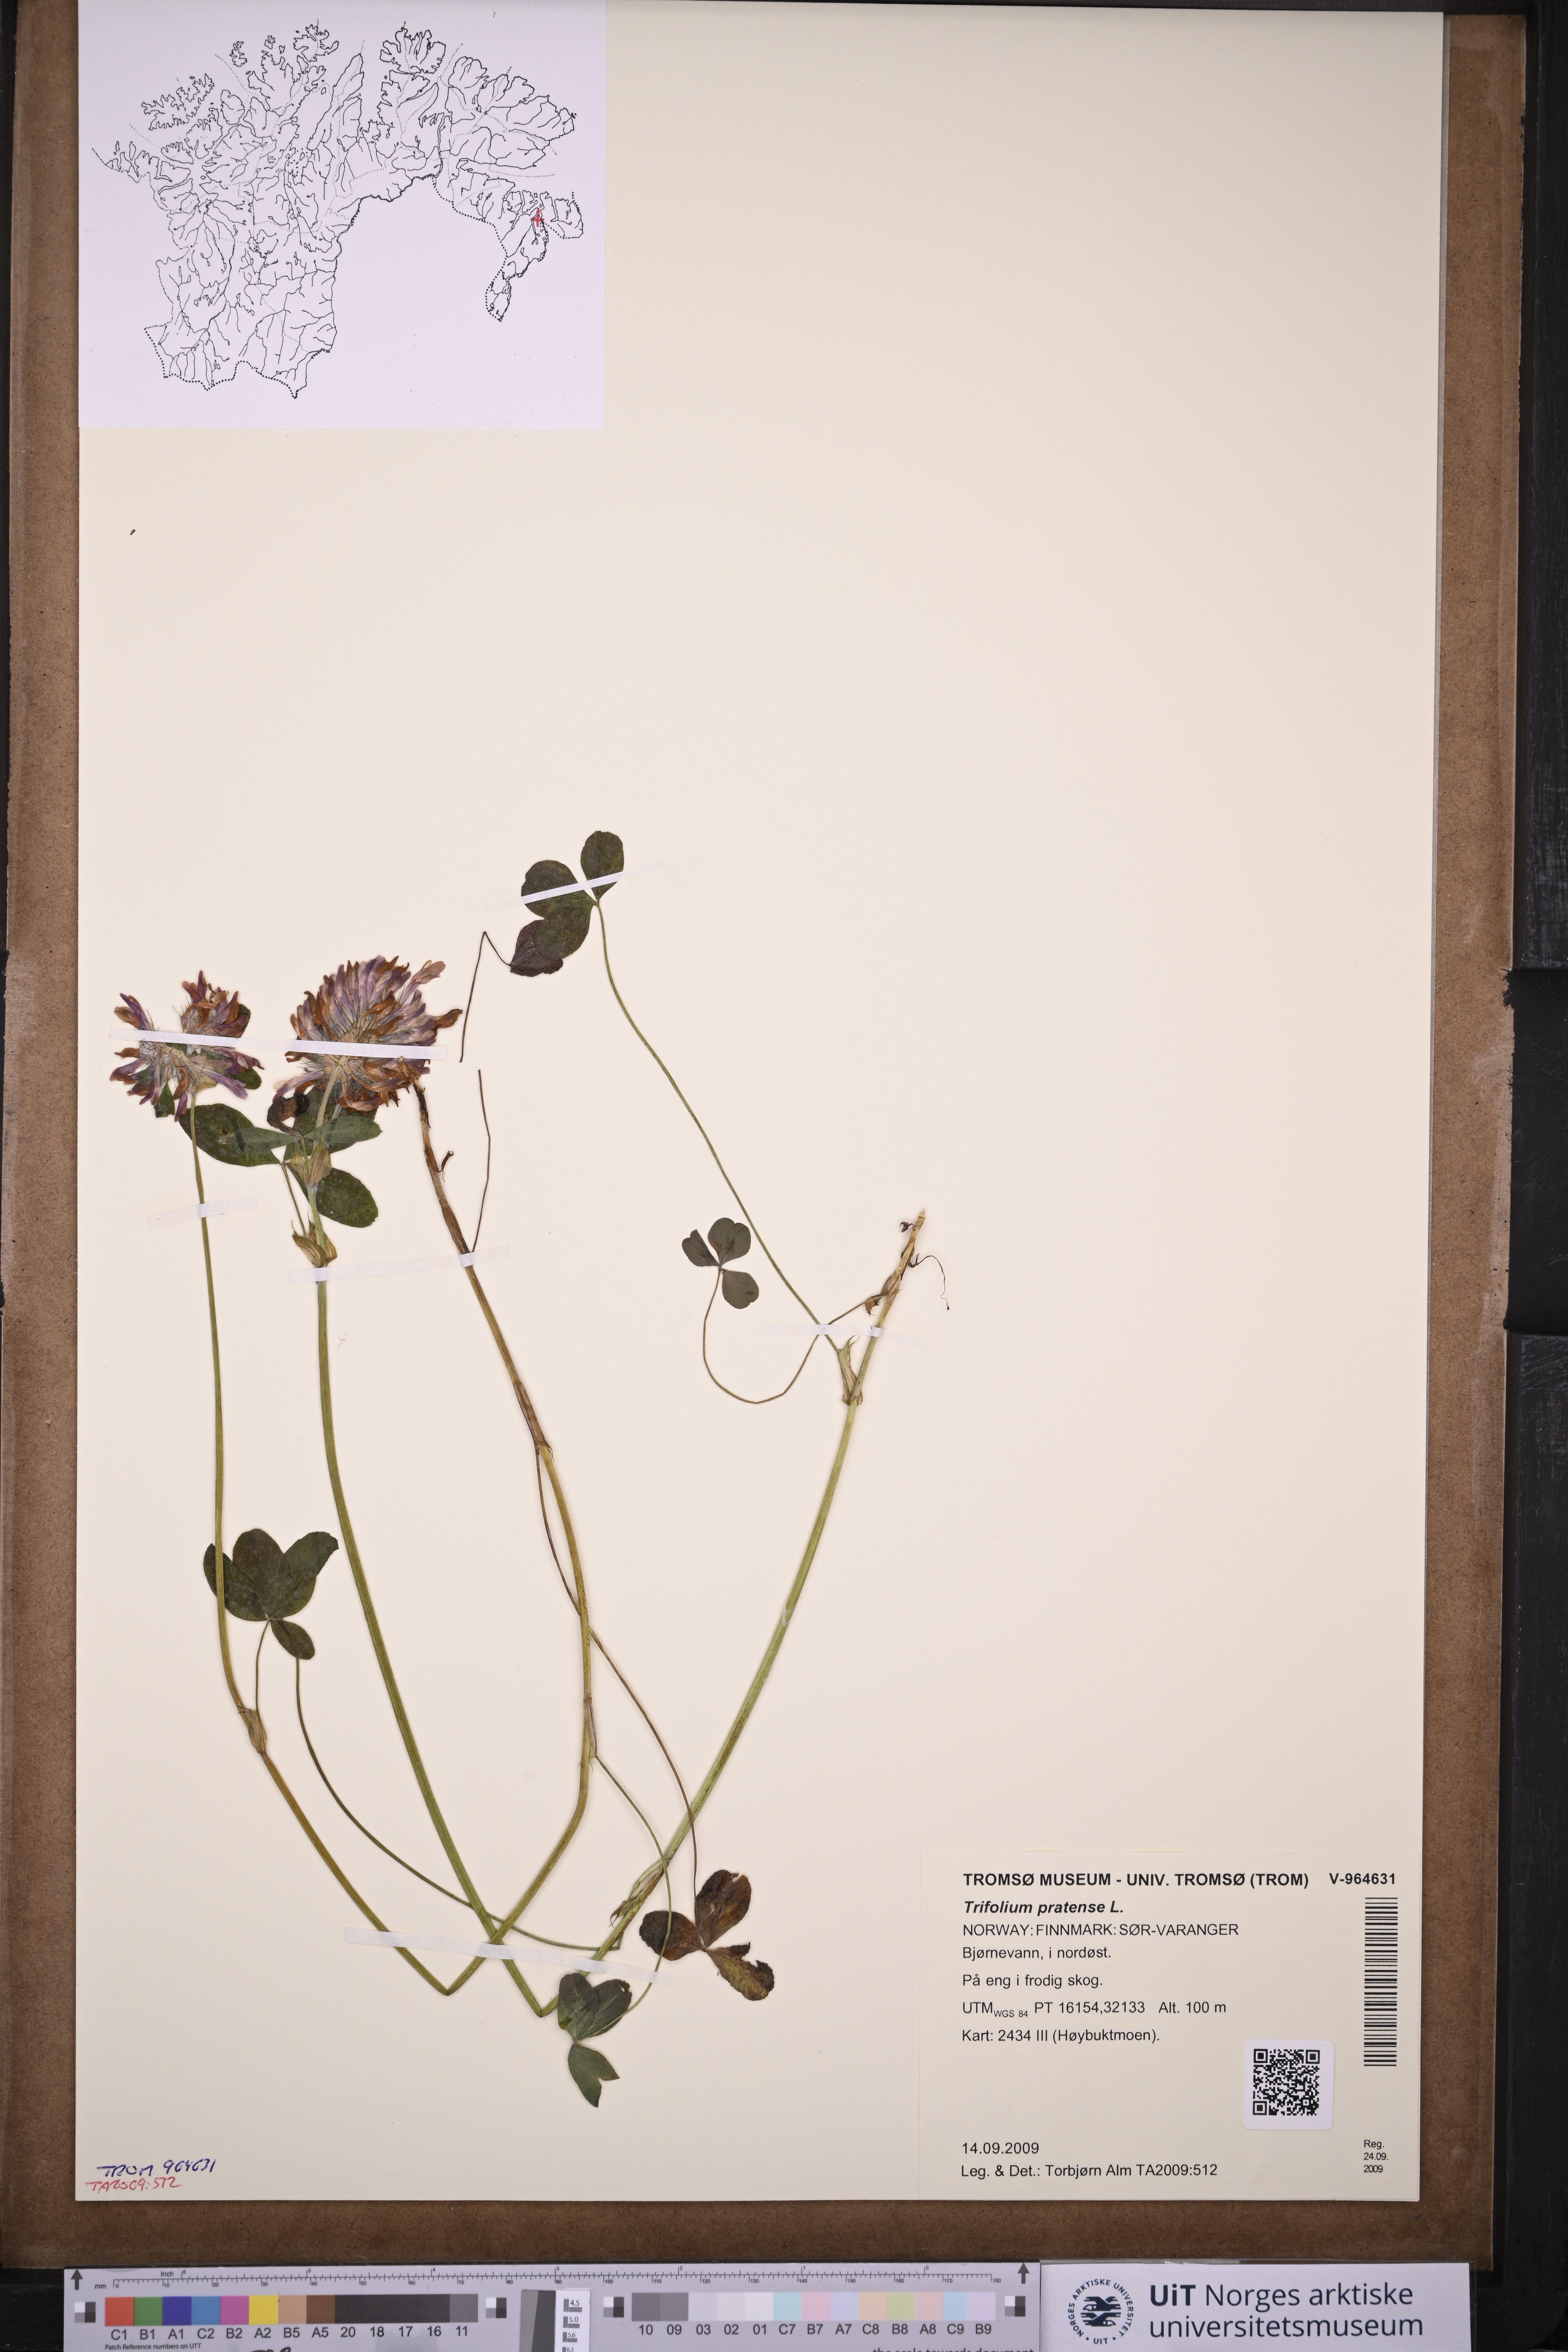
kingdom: Plantae
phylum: Tracheophyta
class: Magnoliopsida
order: Fabales
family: Fabaceae
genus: Trifolium
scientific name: Trifolium pratense
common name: Red clover
